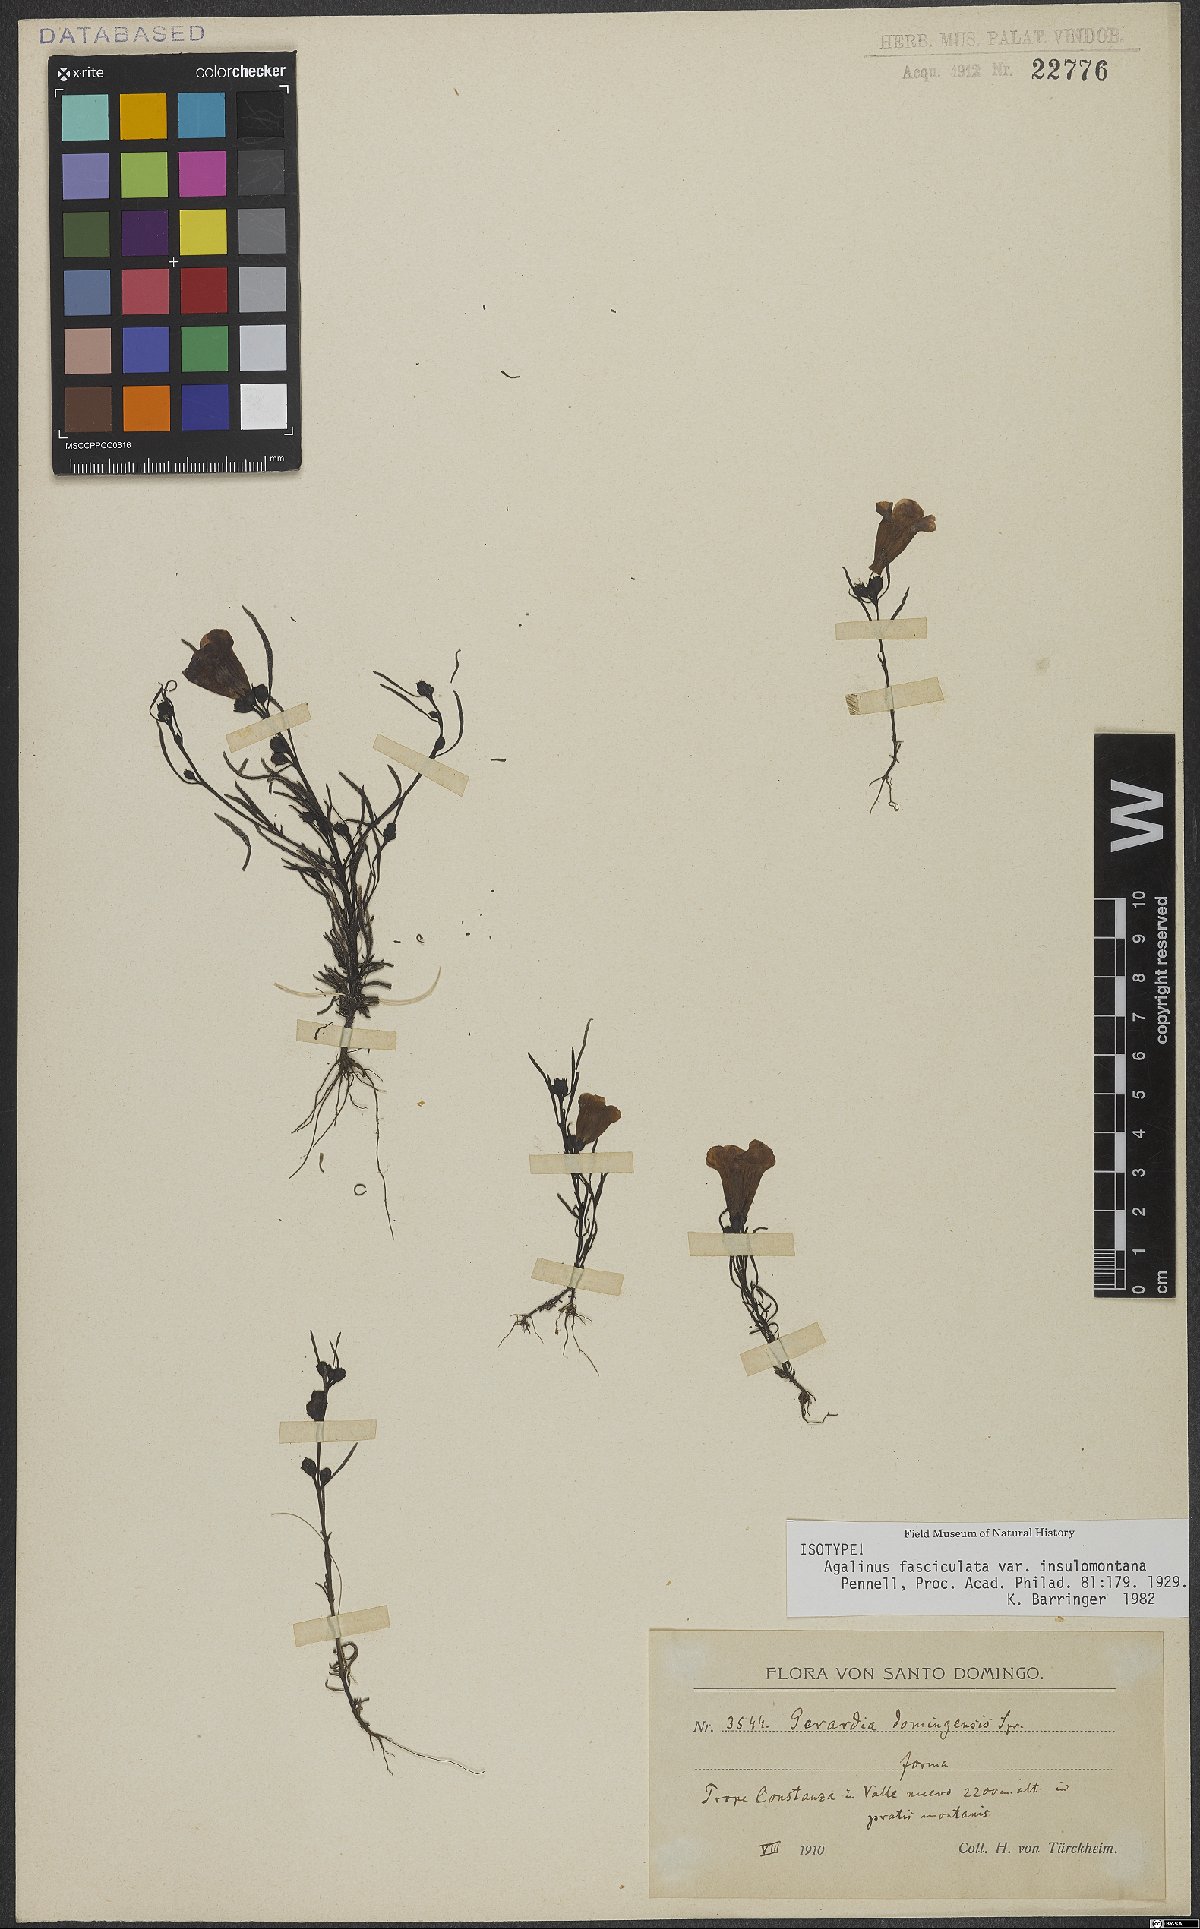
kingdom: Plantae
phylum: Tracheophyta
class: Magnoliopsida
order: Lamiales
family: Orobanchaceae
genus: Agalinis
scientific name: Agalinis fasciculata
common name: Beach false foxglove
